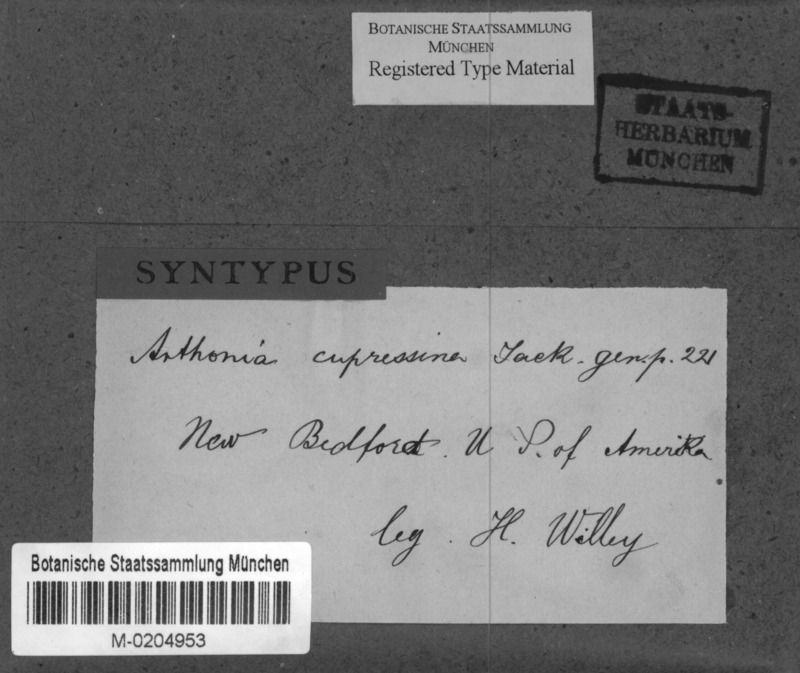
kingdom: Fungi
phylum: Ascomycota
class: Arthoniomycetes
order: Arthoniales
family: Arthoniaceae
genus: Arthonia
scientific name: Arthonia cupressina
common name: Golden spruce dots
